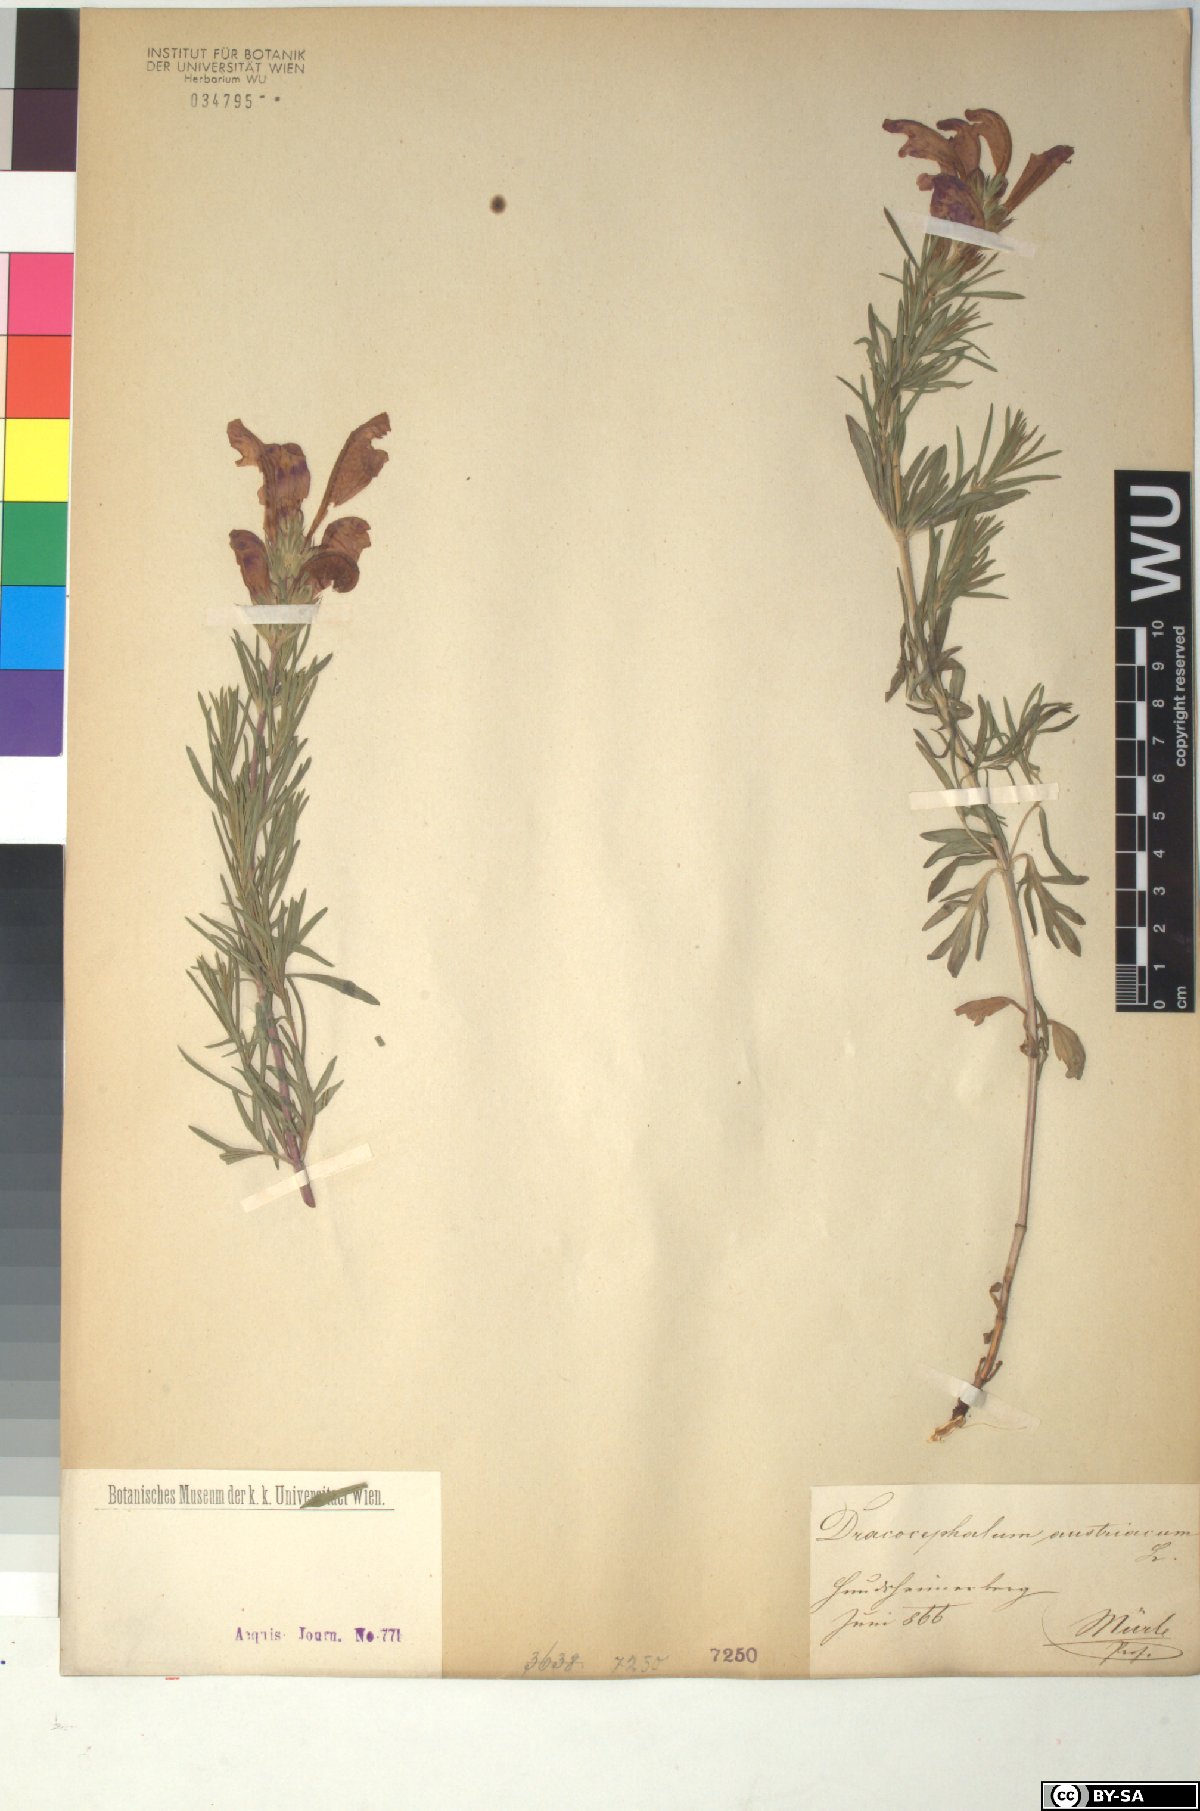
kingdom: Plantae
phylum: Tracheophyta
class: Magnoliopsida
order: Lamiales
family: Lamiaceae
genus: Dracocephalum
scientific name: Dracocephalum austriacum
